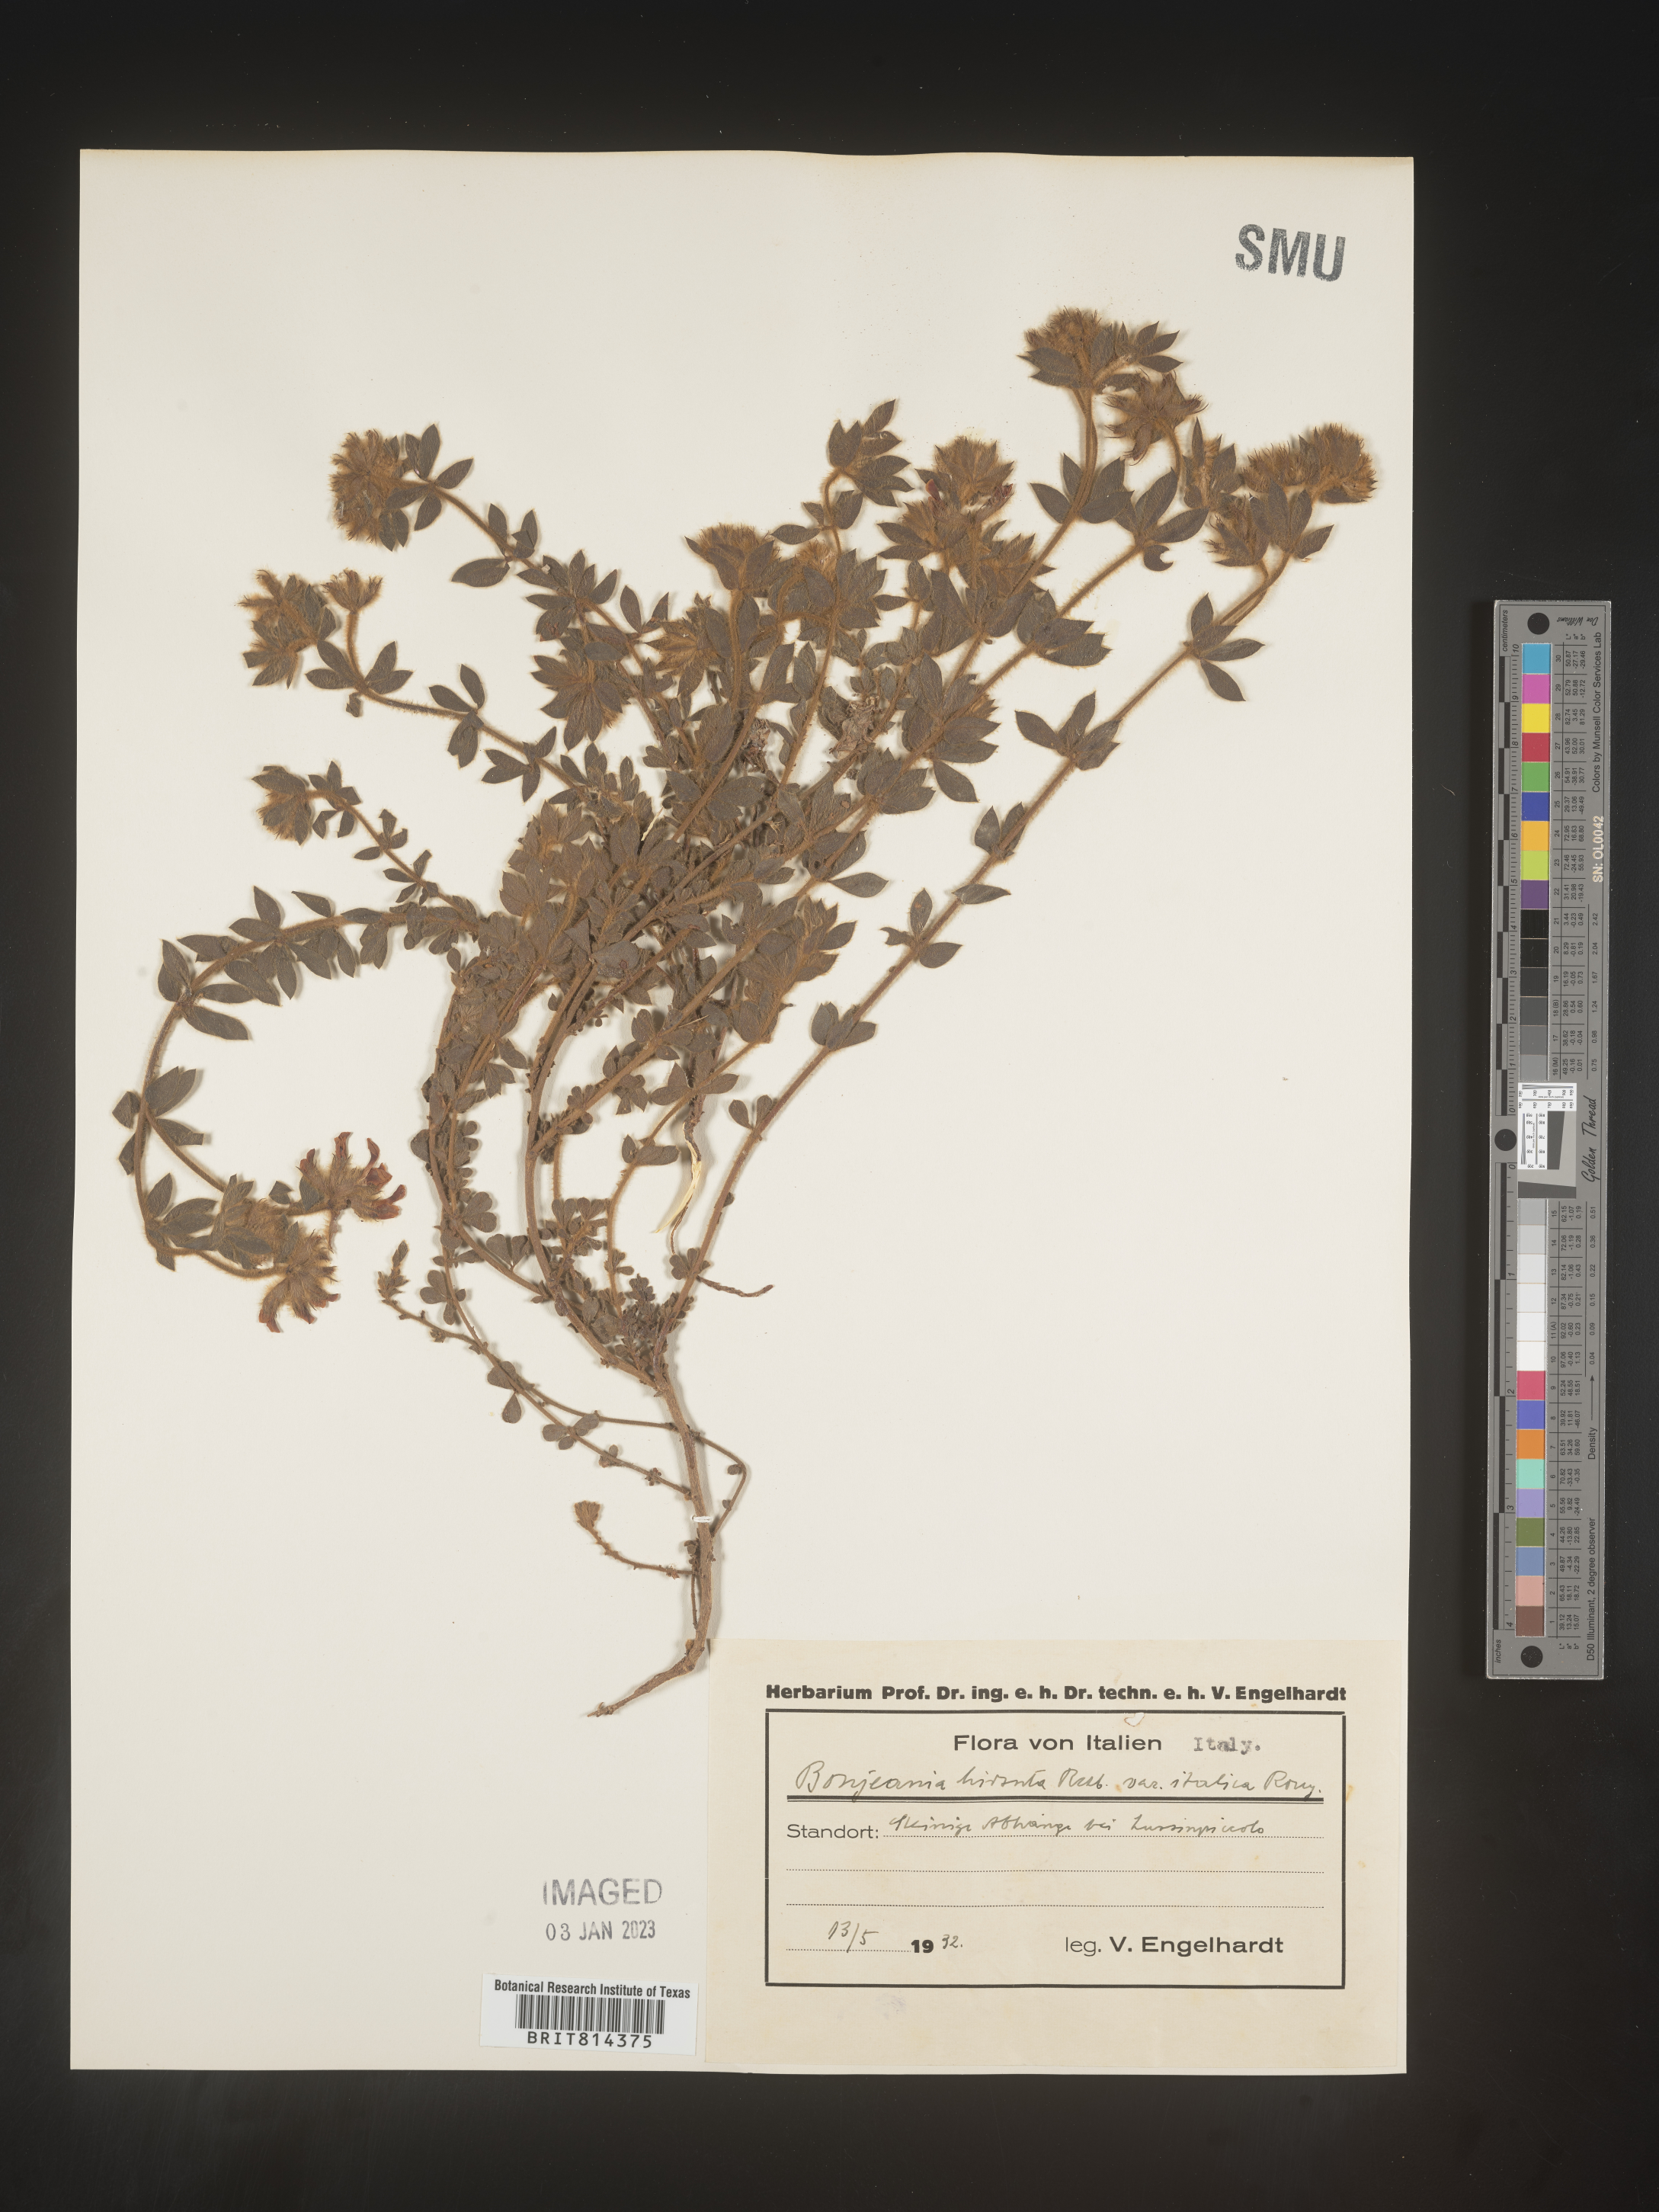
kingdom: Plantae
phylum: Tracheophyta
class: Magnoliopsida
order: Fabales
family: Fabaceae
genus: Bonjeania
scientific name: Bonjeania
